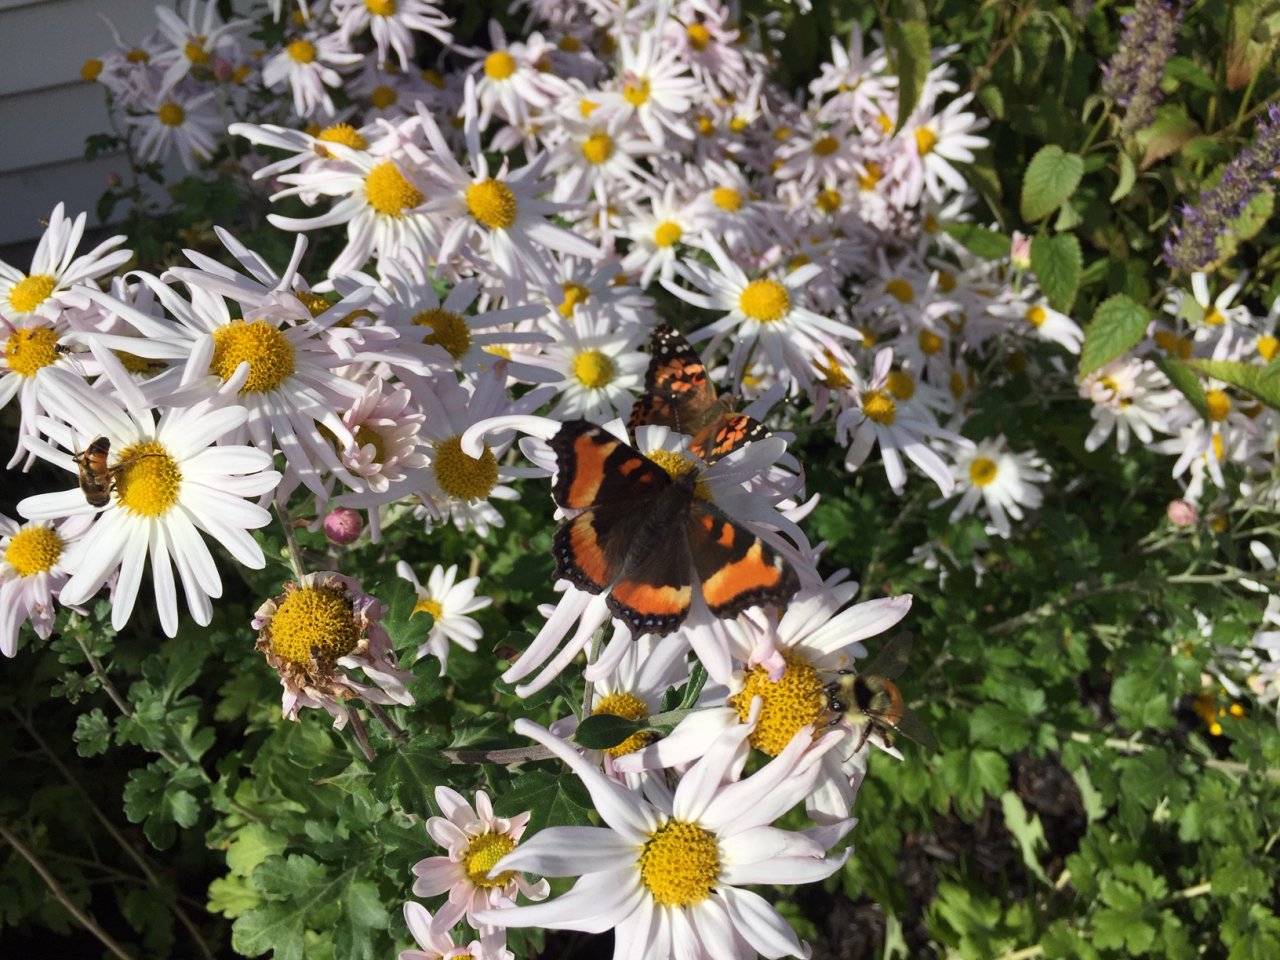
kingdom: Animalia
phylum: Arthropoda
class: Insecta
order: Lepidoptera
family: Nymphalidae
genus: Aglais
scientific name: Aglais milberti
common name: Milbert's Tortoiseshell
